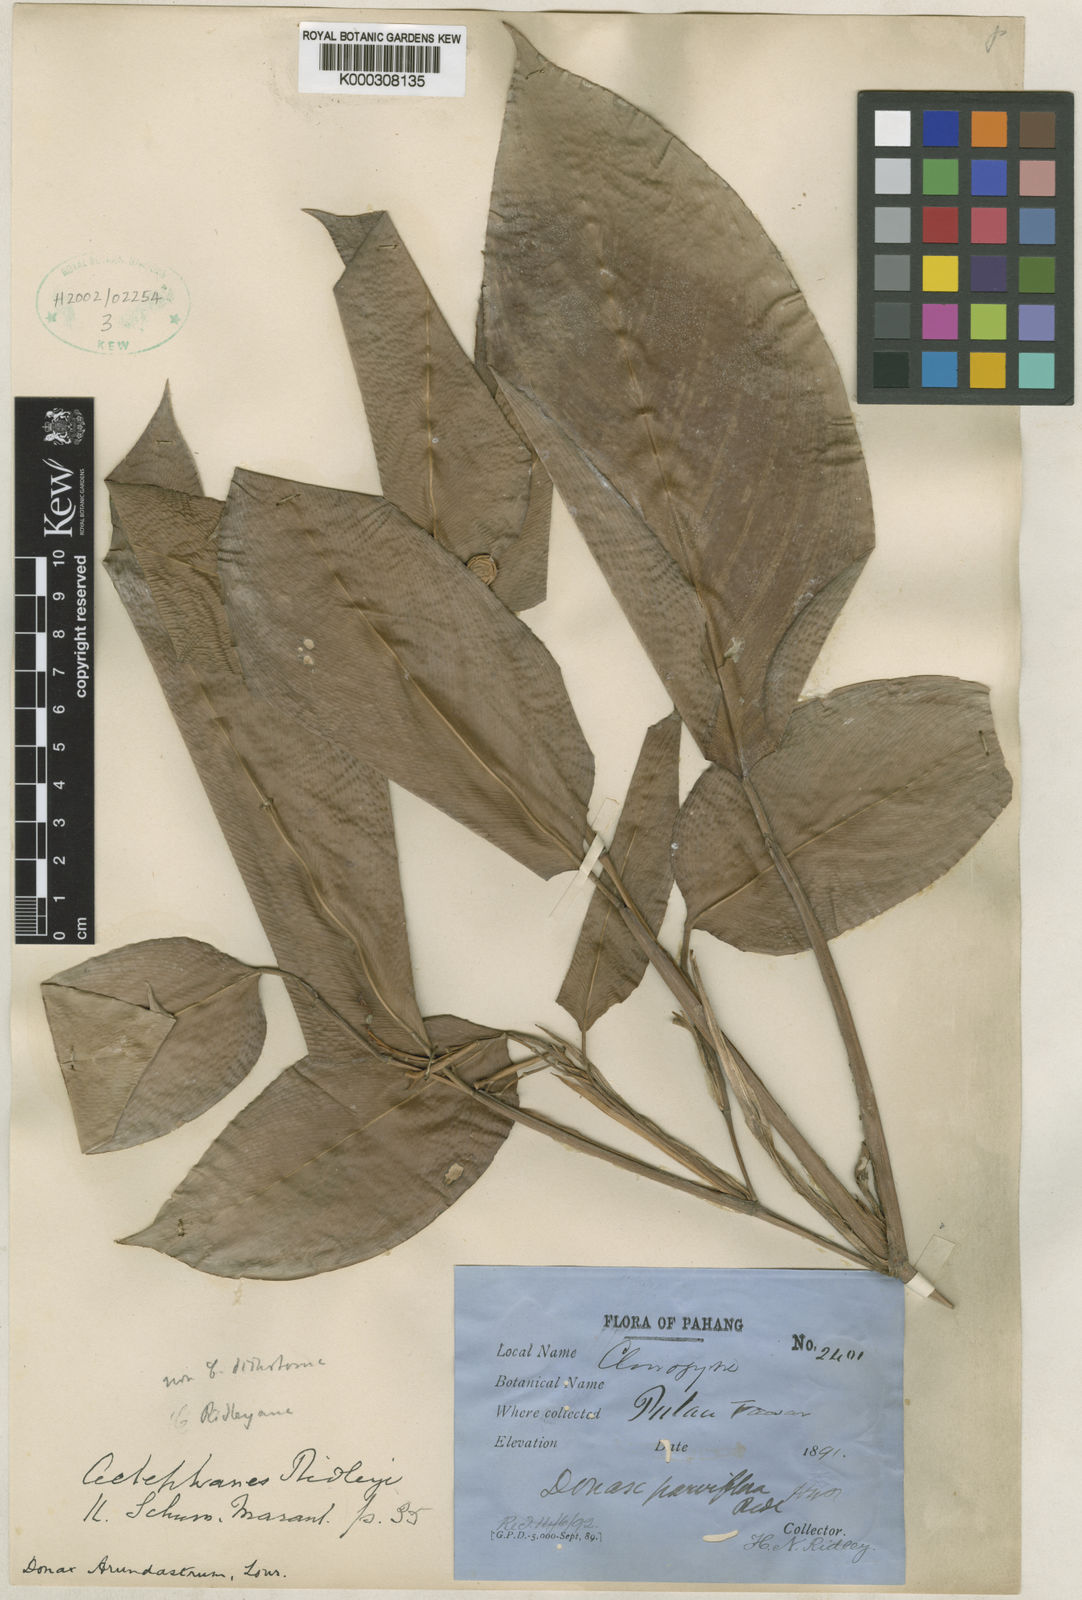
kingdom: Plantae
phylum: Tracheophyta
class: Liliopsida
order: Zingiberales
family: Marantaceae
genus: Donax
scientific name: Donax canniformis
